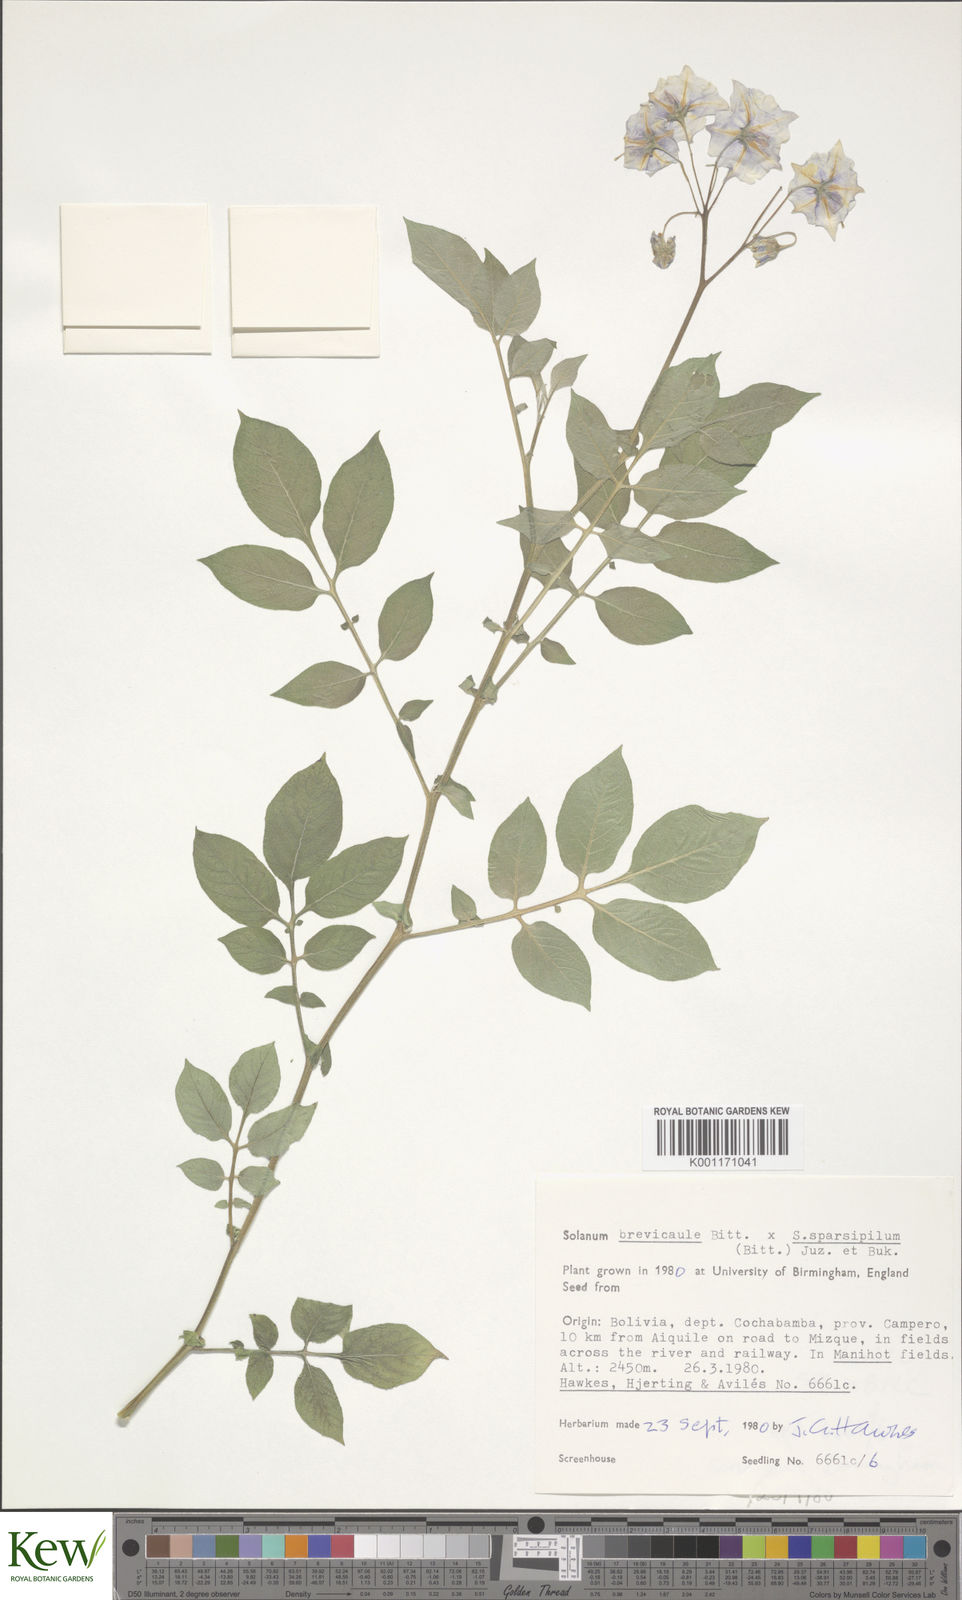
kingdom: Plantae
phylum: Tracheophyta
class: Magnoliopsida
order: Solanales
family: Solanaceae
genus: Solanum
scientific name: Solanum brevicaule
